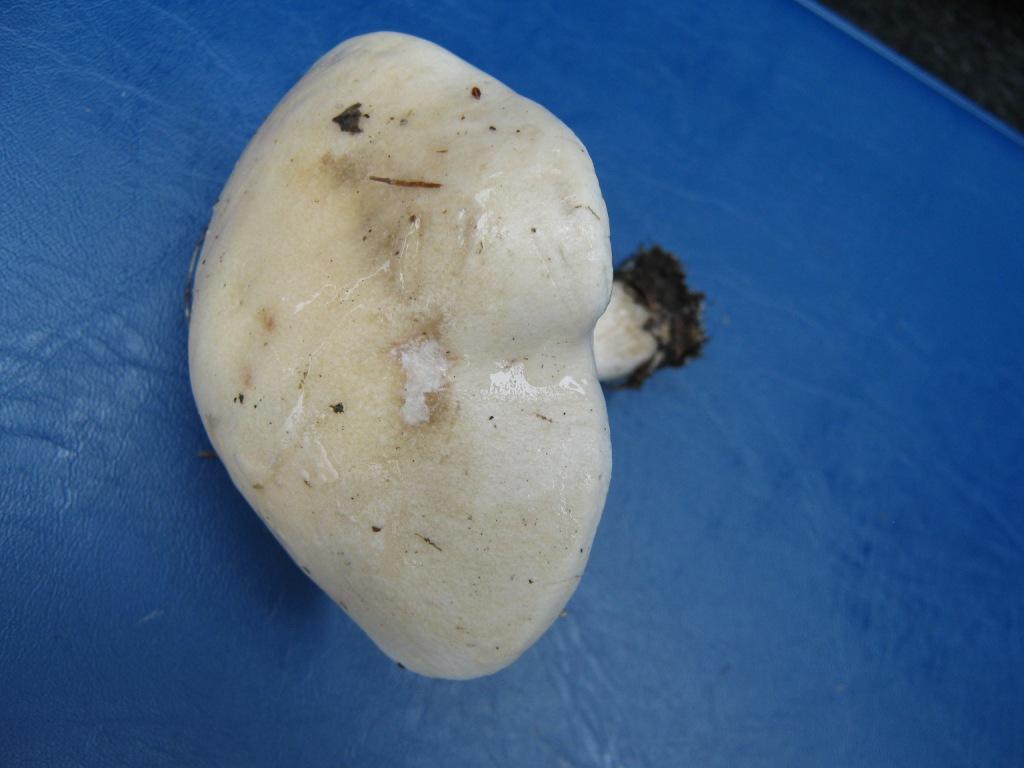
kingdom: Fungi
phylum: Basidiomycota
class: Agaricomycetes
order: Agaricales
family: Hymenogastraceae
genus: Hebeloma
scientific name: Hebeloma leucosarx
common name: højstokket tåreblad
